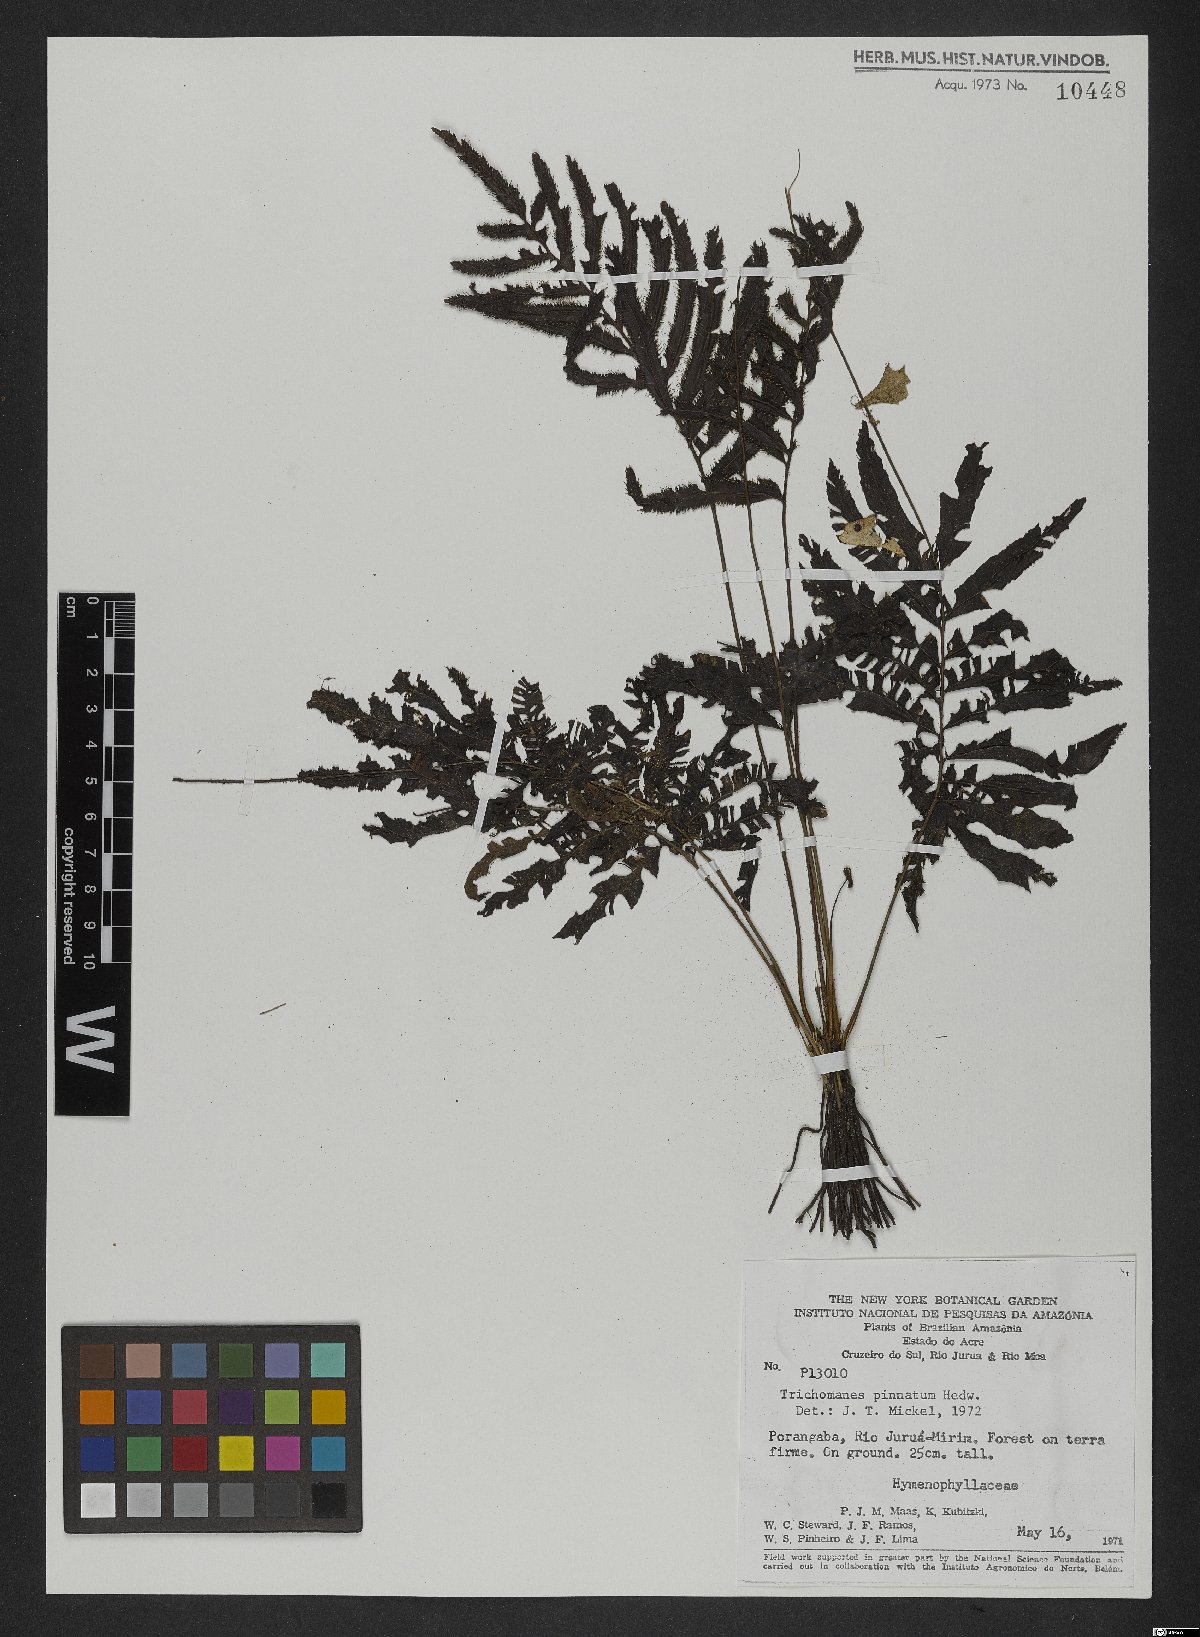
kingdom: Plantae
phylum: Tracheophyta
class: Polypodiopsida
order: Hymenophyllales
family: Hymenophyllaceae
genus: Trichomanes
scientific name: Trichomanes pinnatum
